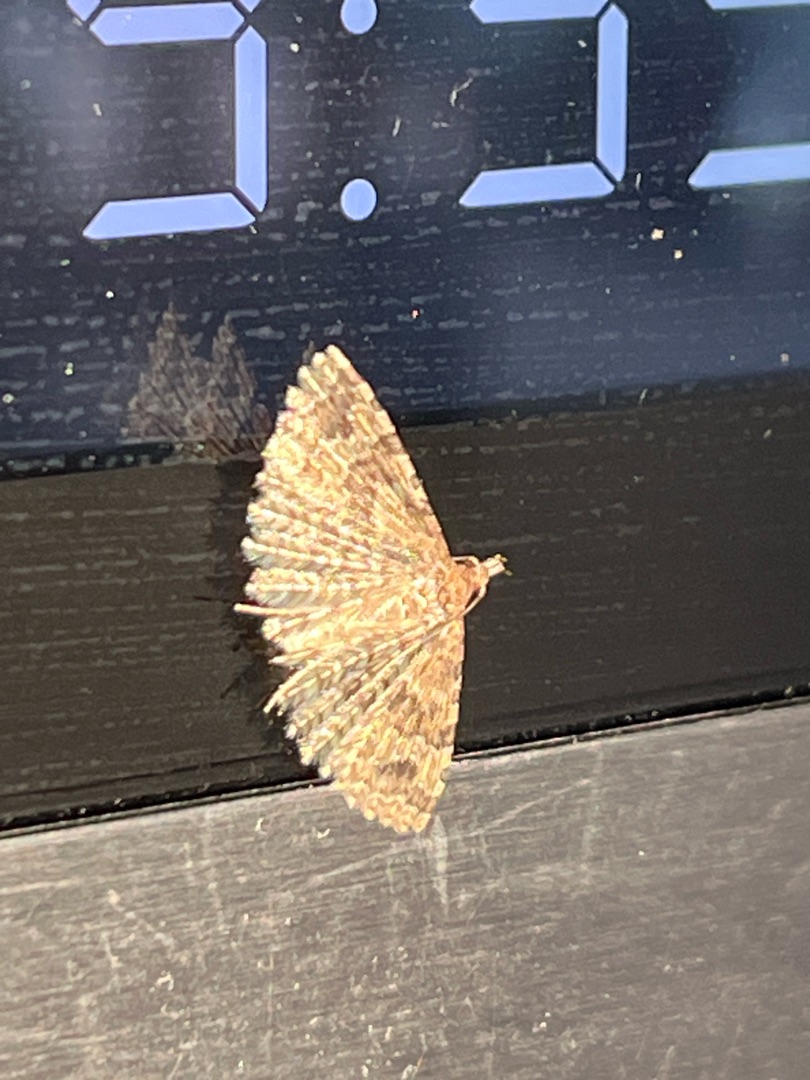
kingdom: Animalia
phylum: Arthropoda
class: Insecta
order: Lepidoptera
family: Alucitidae
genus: Alucita
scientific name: Alucita hexadactyla
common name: Kaprifoliefjermøl
